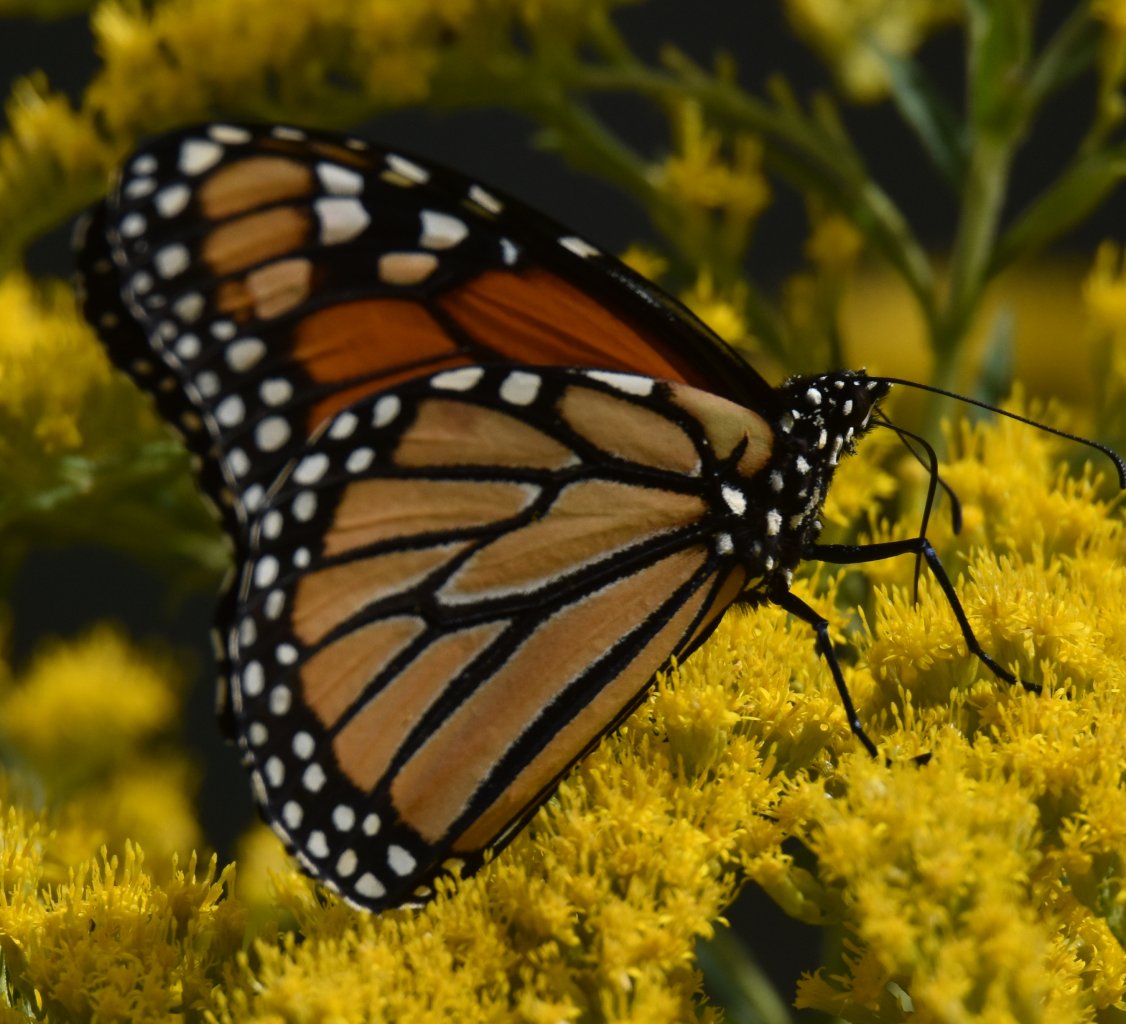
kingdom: Animalia
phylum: Arthropoda
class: Insecta
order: Lepidoptera
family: Nymphalidae
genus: Danaus
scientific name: Danaus plexippus
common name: Monarch
